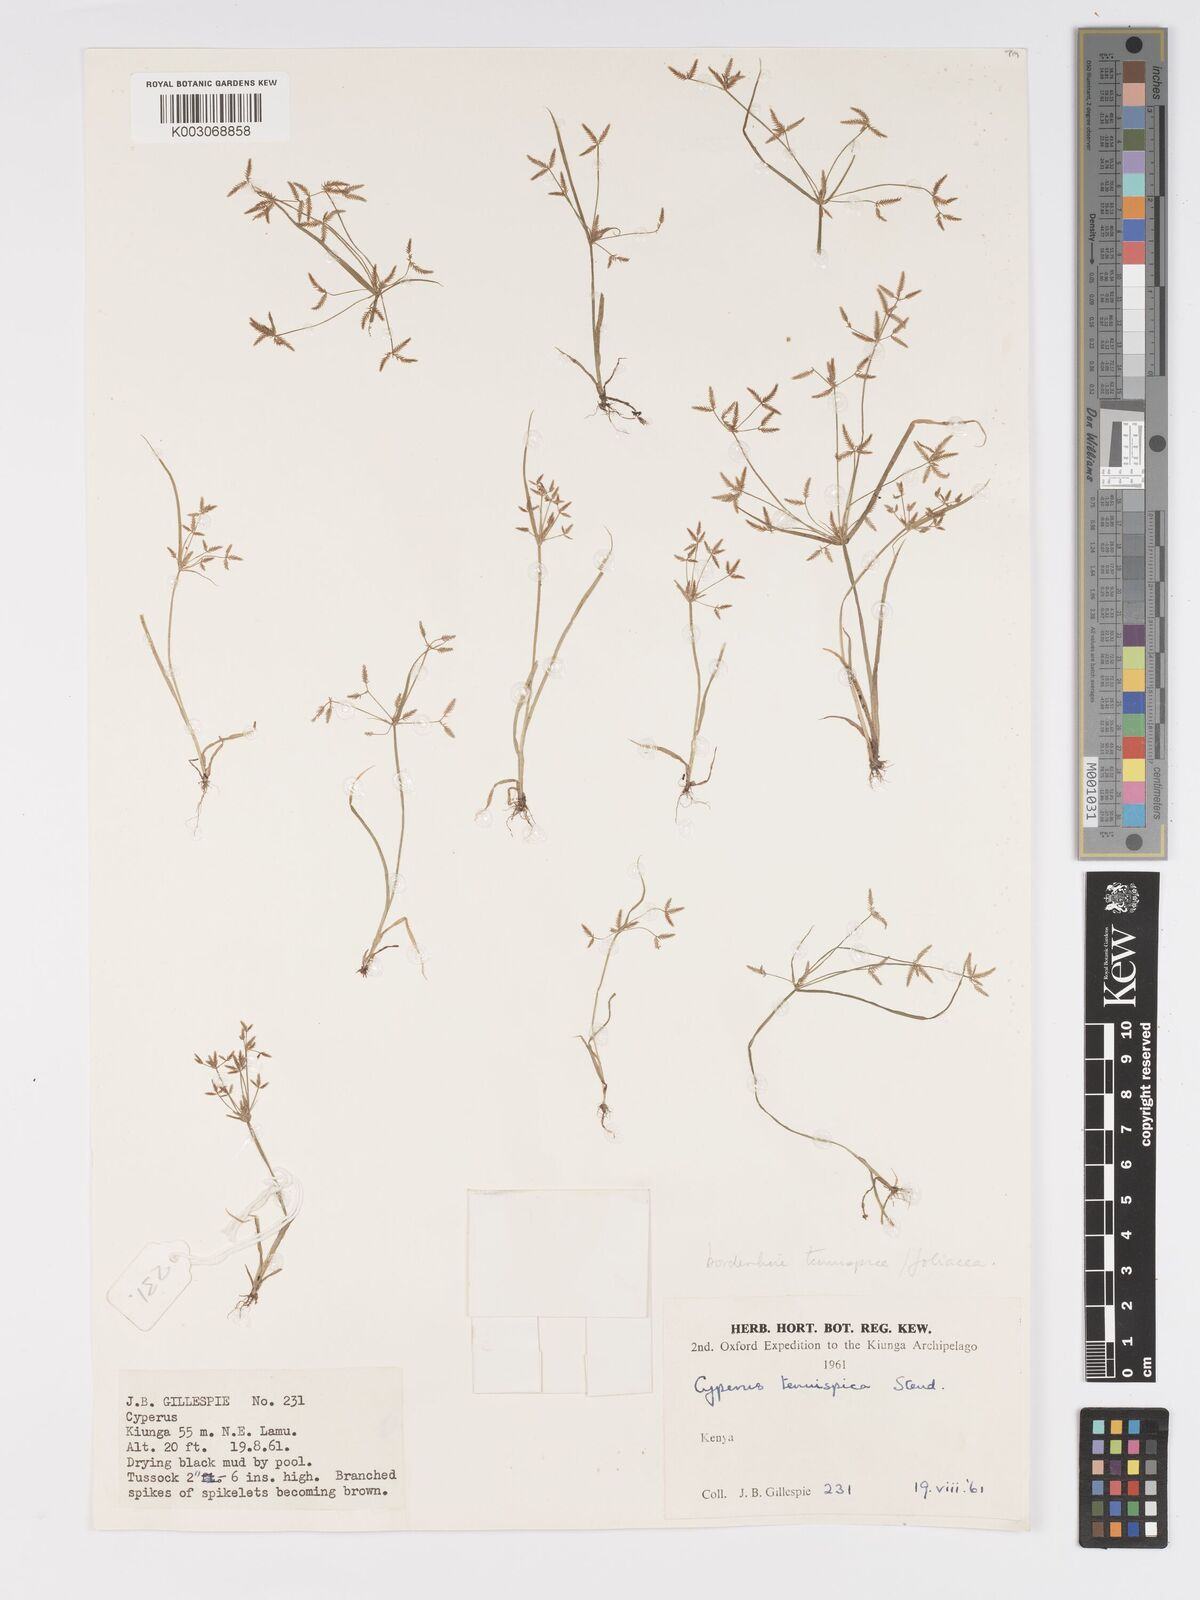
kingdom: Plantae
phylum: Tracheophyta
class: Liliopsida
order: Poales
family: Cyperaceae
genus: Cyperus
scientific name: Cyperus tenuispica
